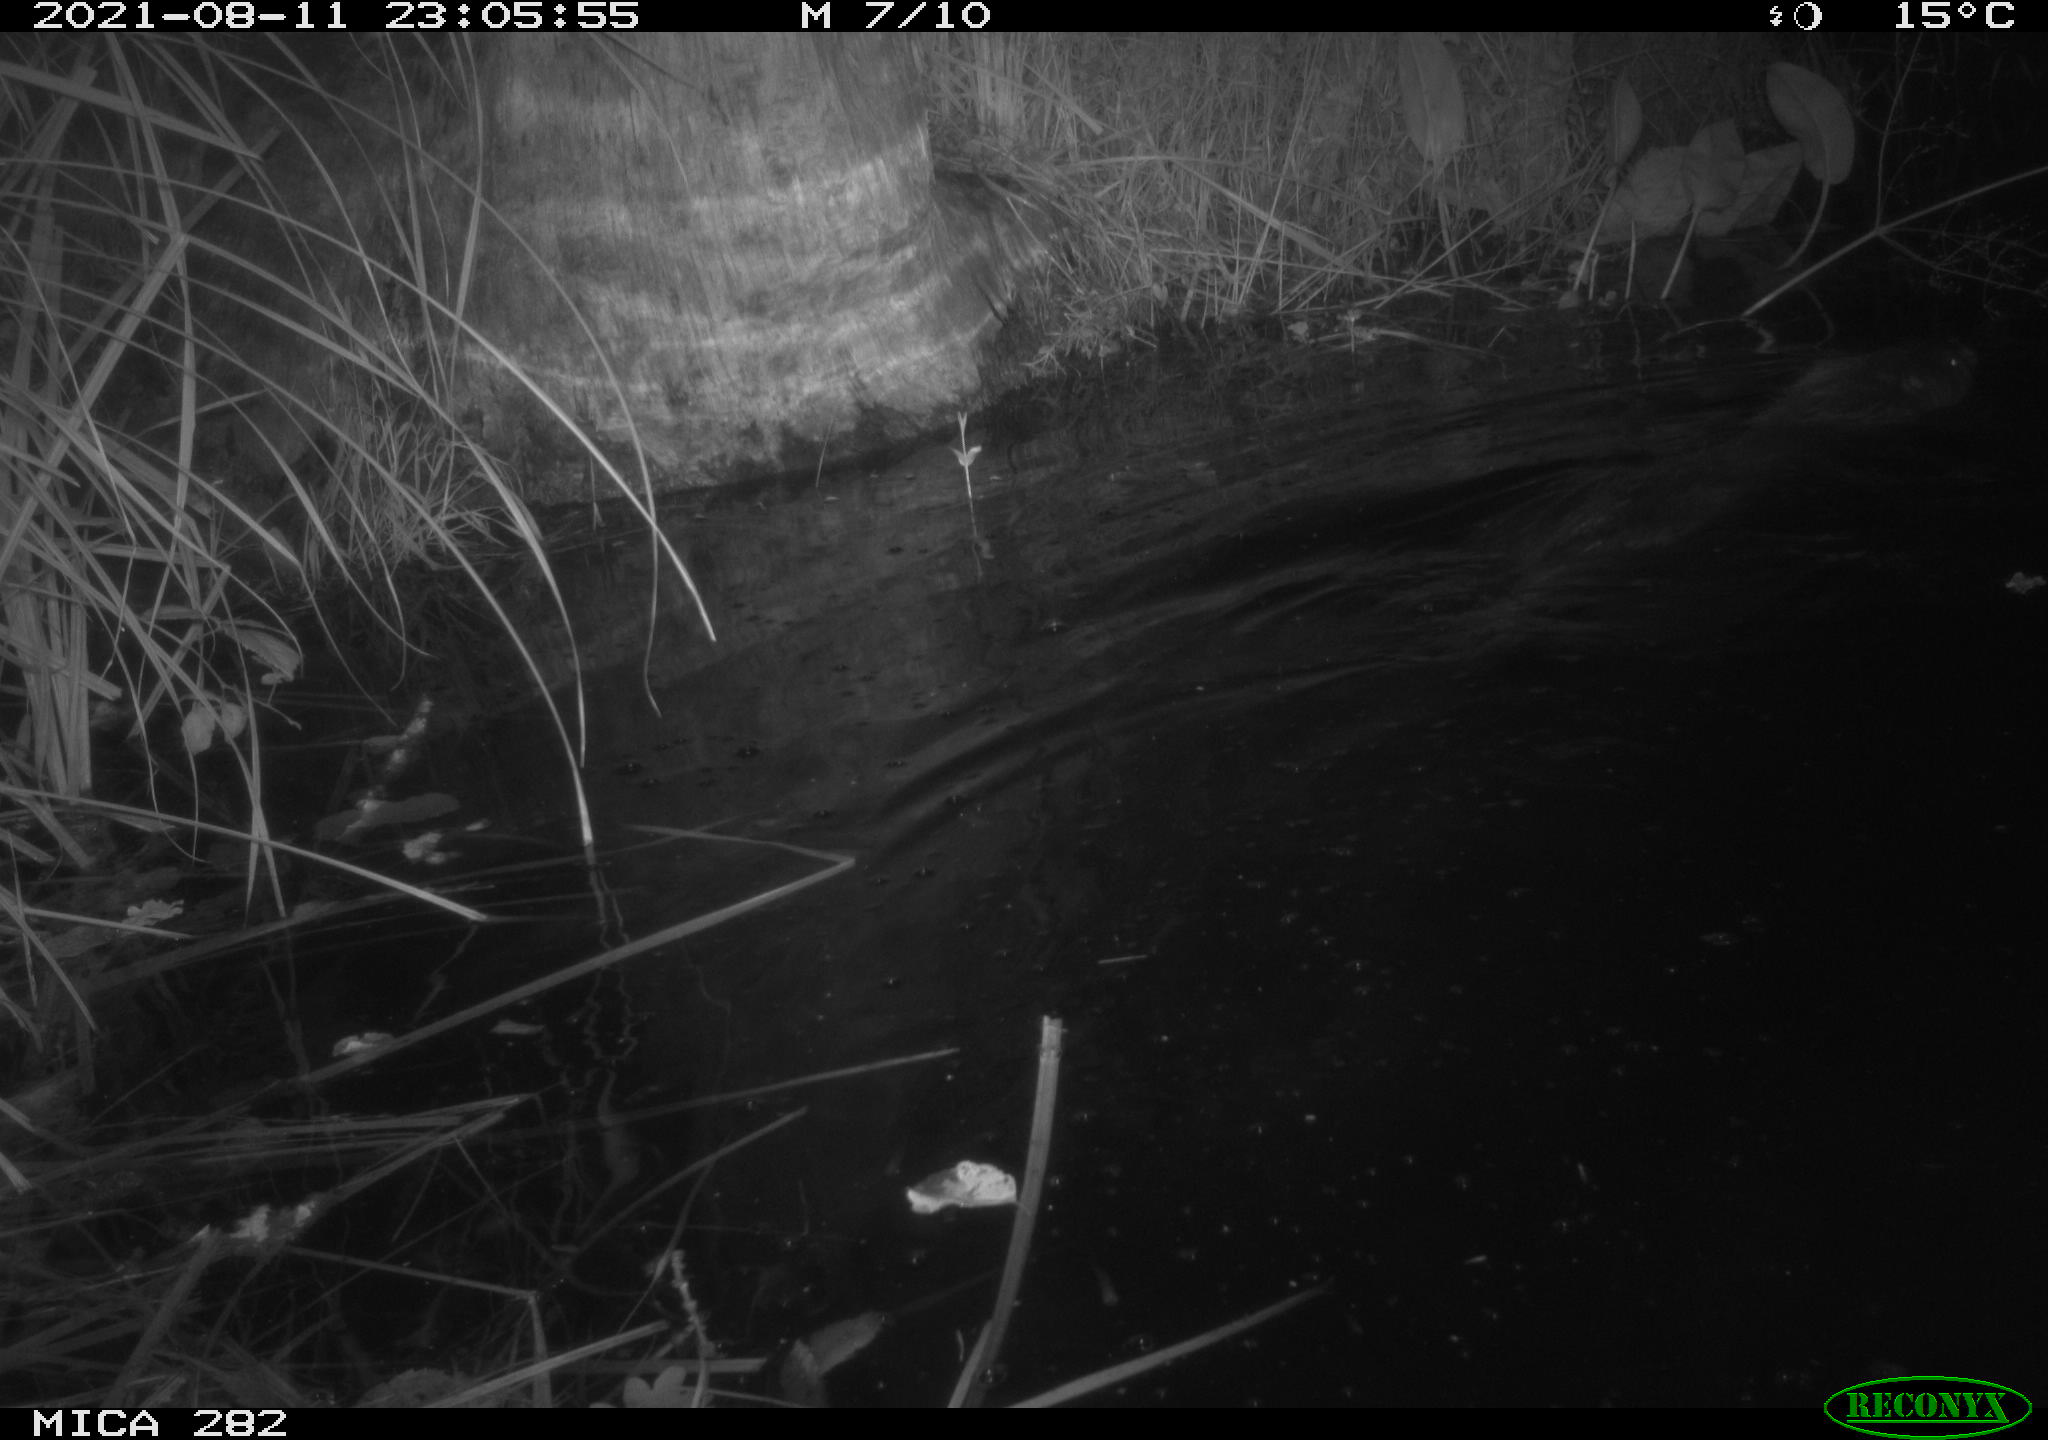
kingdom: Animalia
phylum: Chordata
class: Mammalia
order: Rodentia
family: Castoridae
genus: Castor
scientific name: Castor fiber
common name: Eurasian beaver
